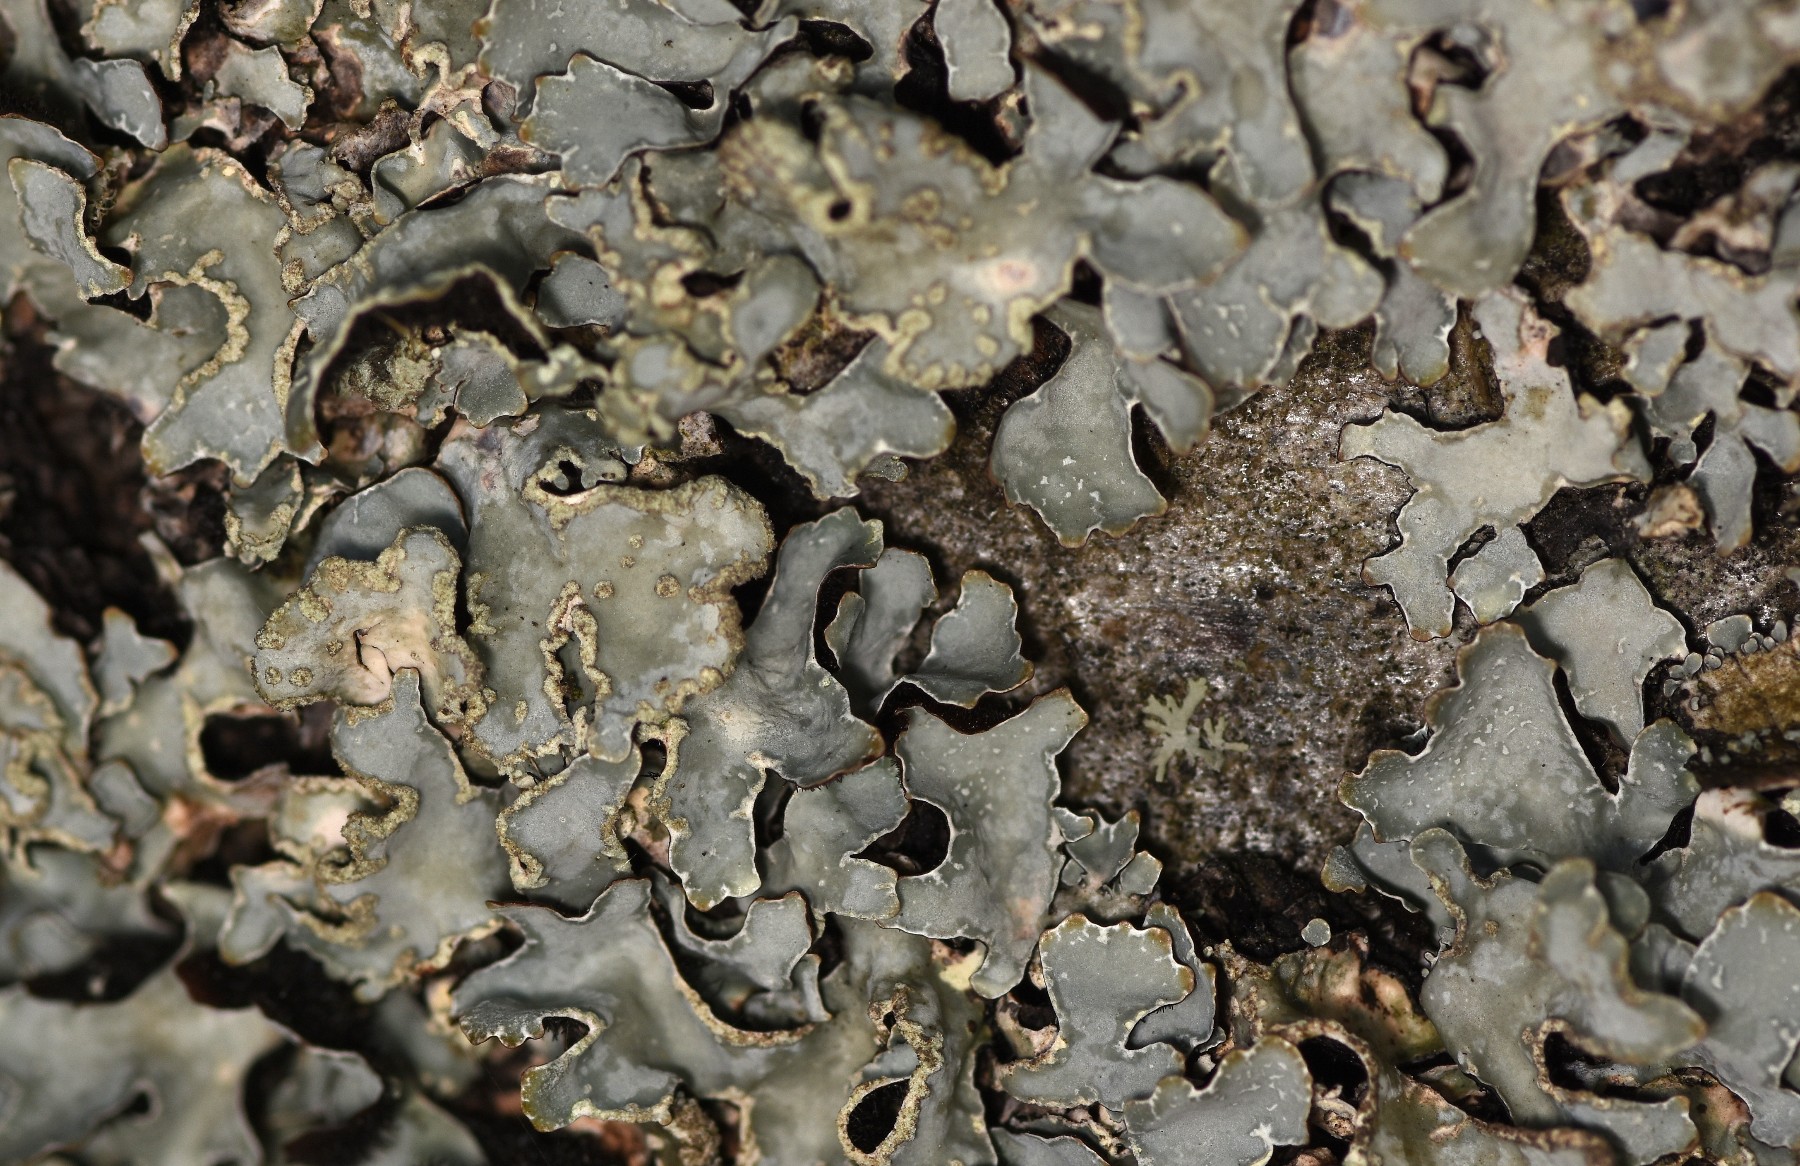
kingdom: Fungi
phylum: Ascomycota
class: Lecanoromycetes
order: Lecanorales
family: Parmeliaceae
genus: Parmelia
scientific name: Parmelia sulcata
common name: rynket skållav
